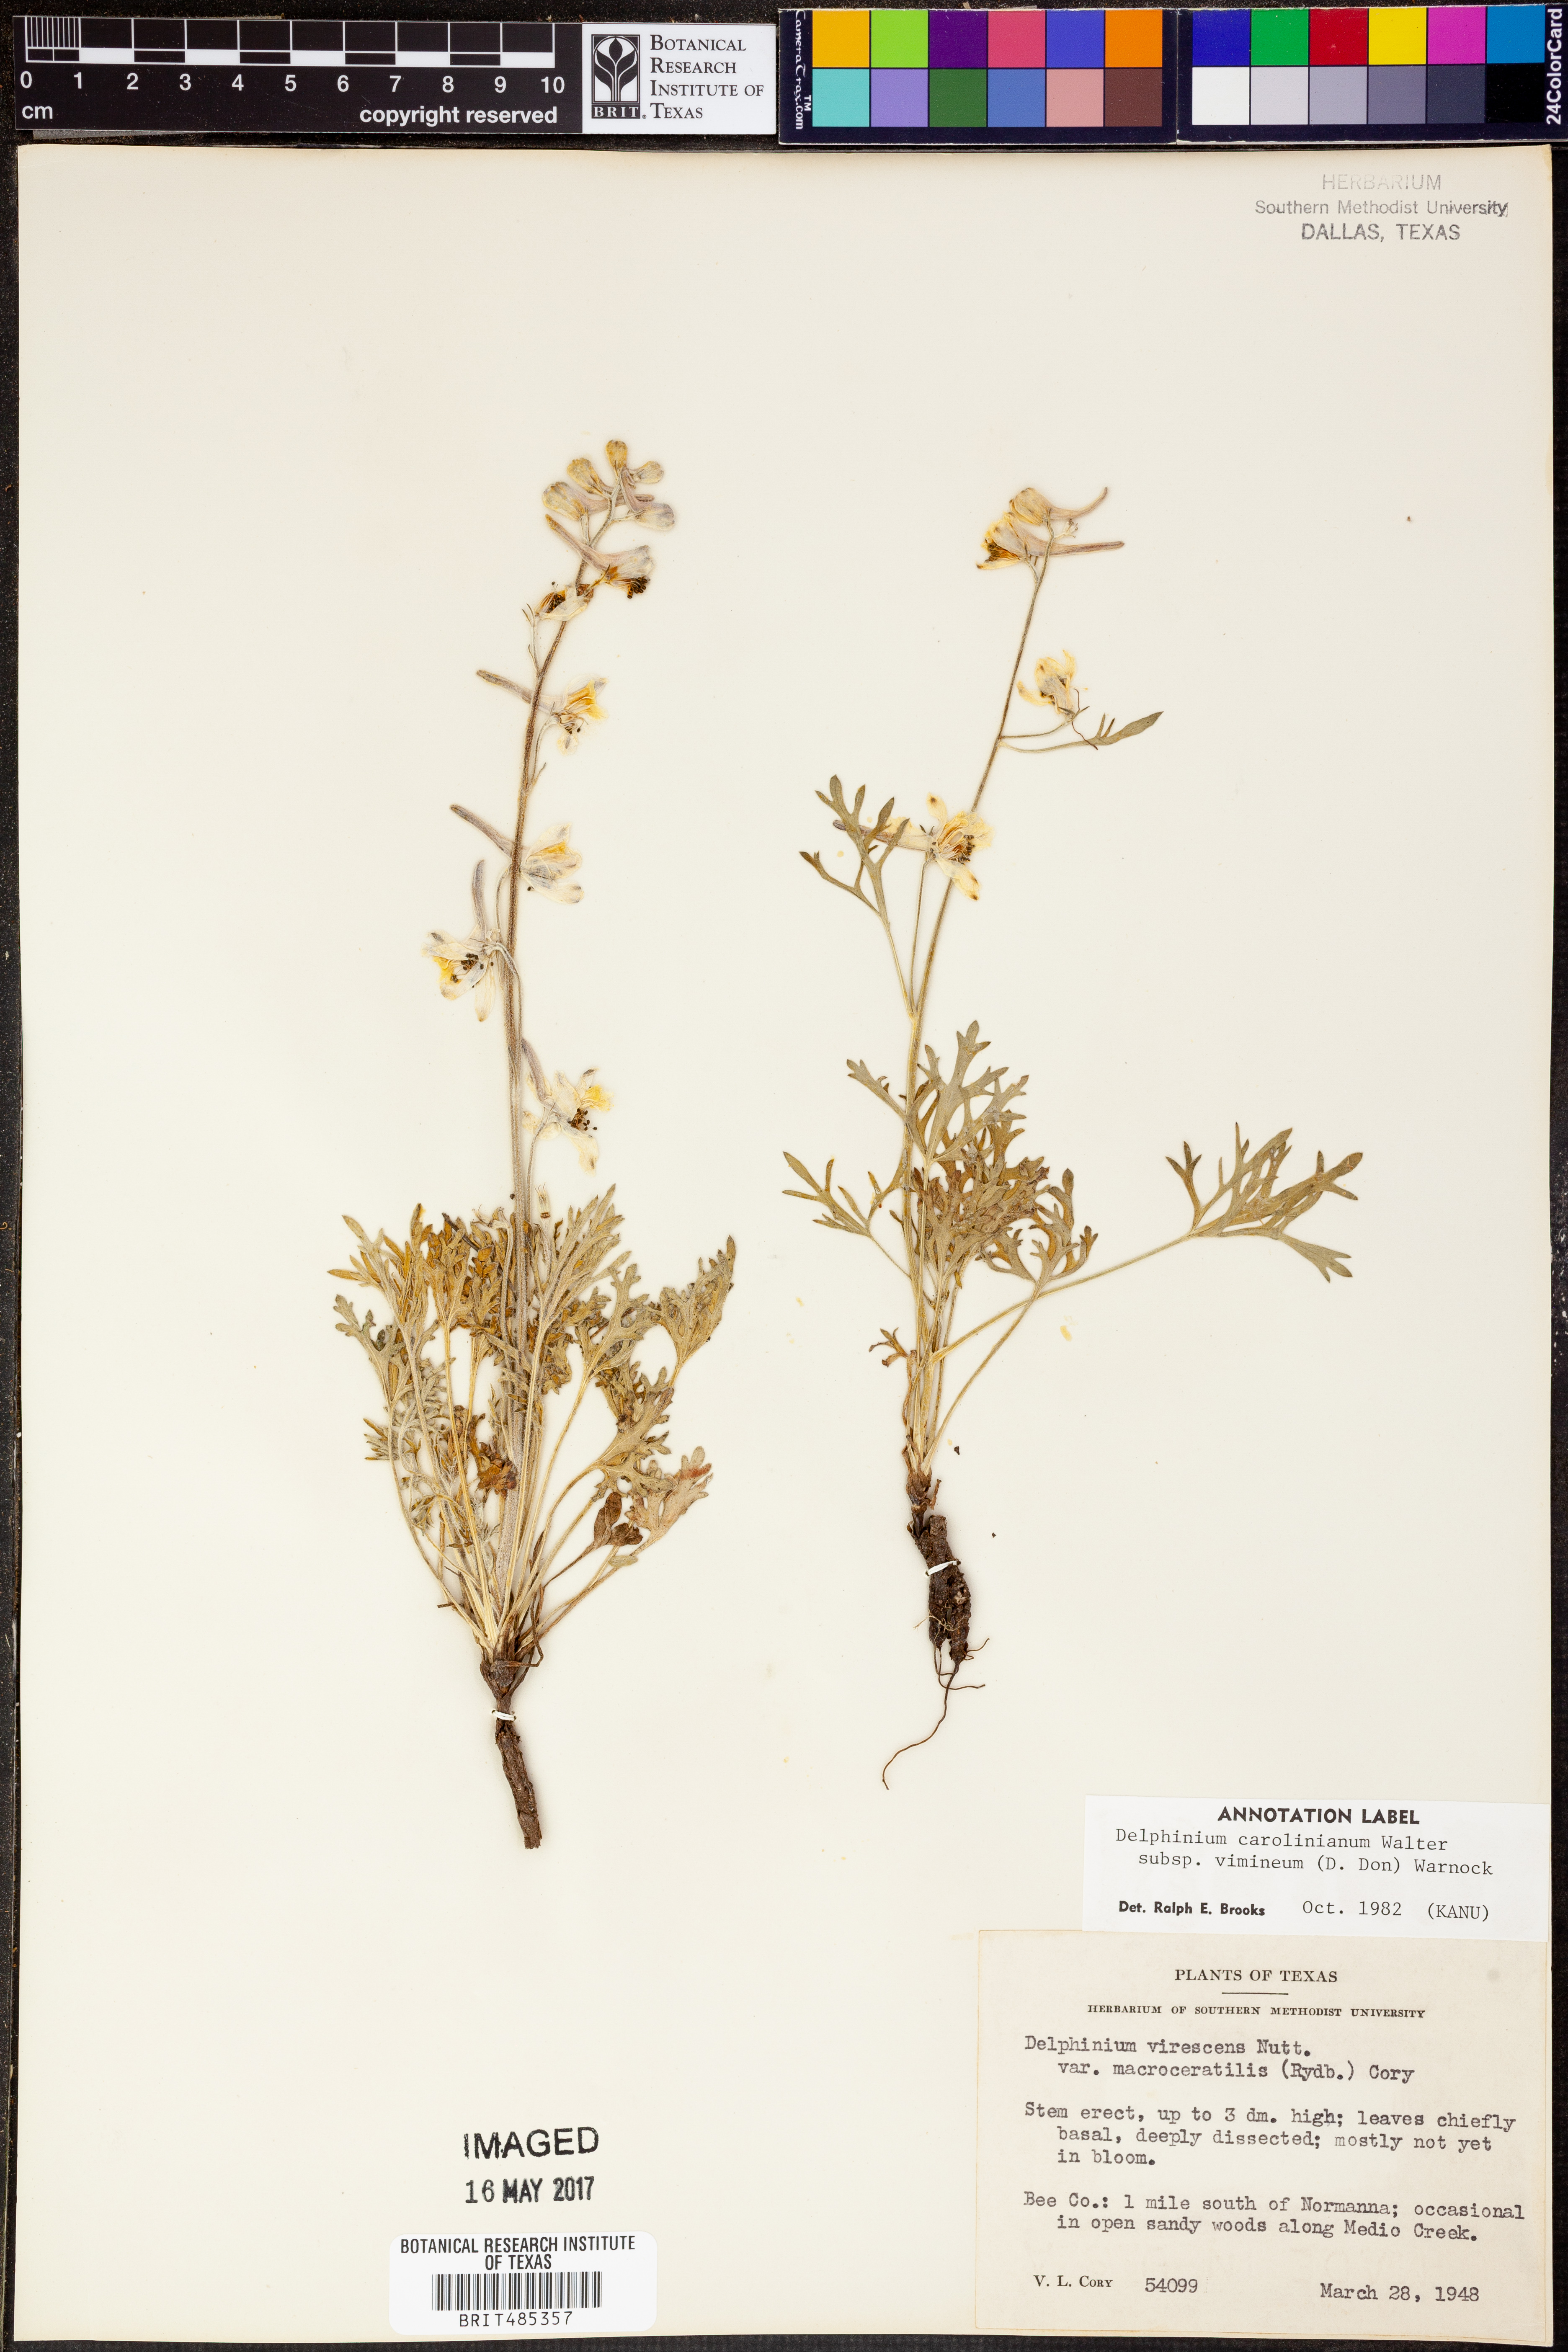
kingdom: Plantae
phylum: Tracheophyta
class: Magnoliopsida
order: Ranunculales
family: Ranunculaceae
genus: Delphinium
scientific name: Delphinium carolinianum
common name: Carolina larkspur
